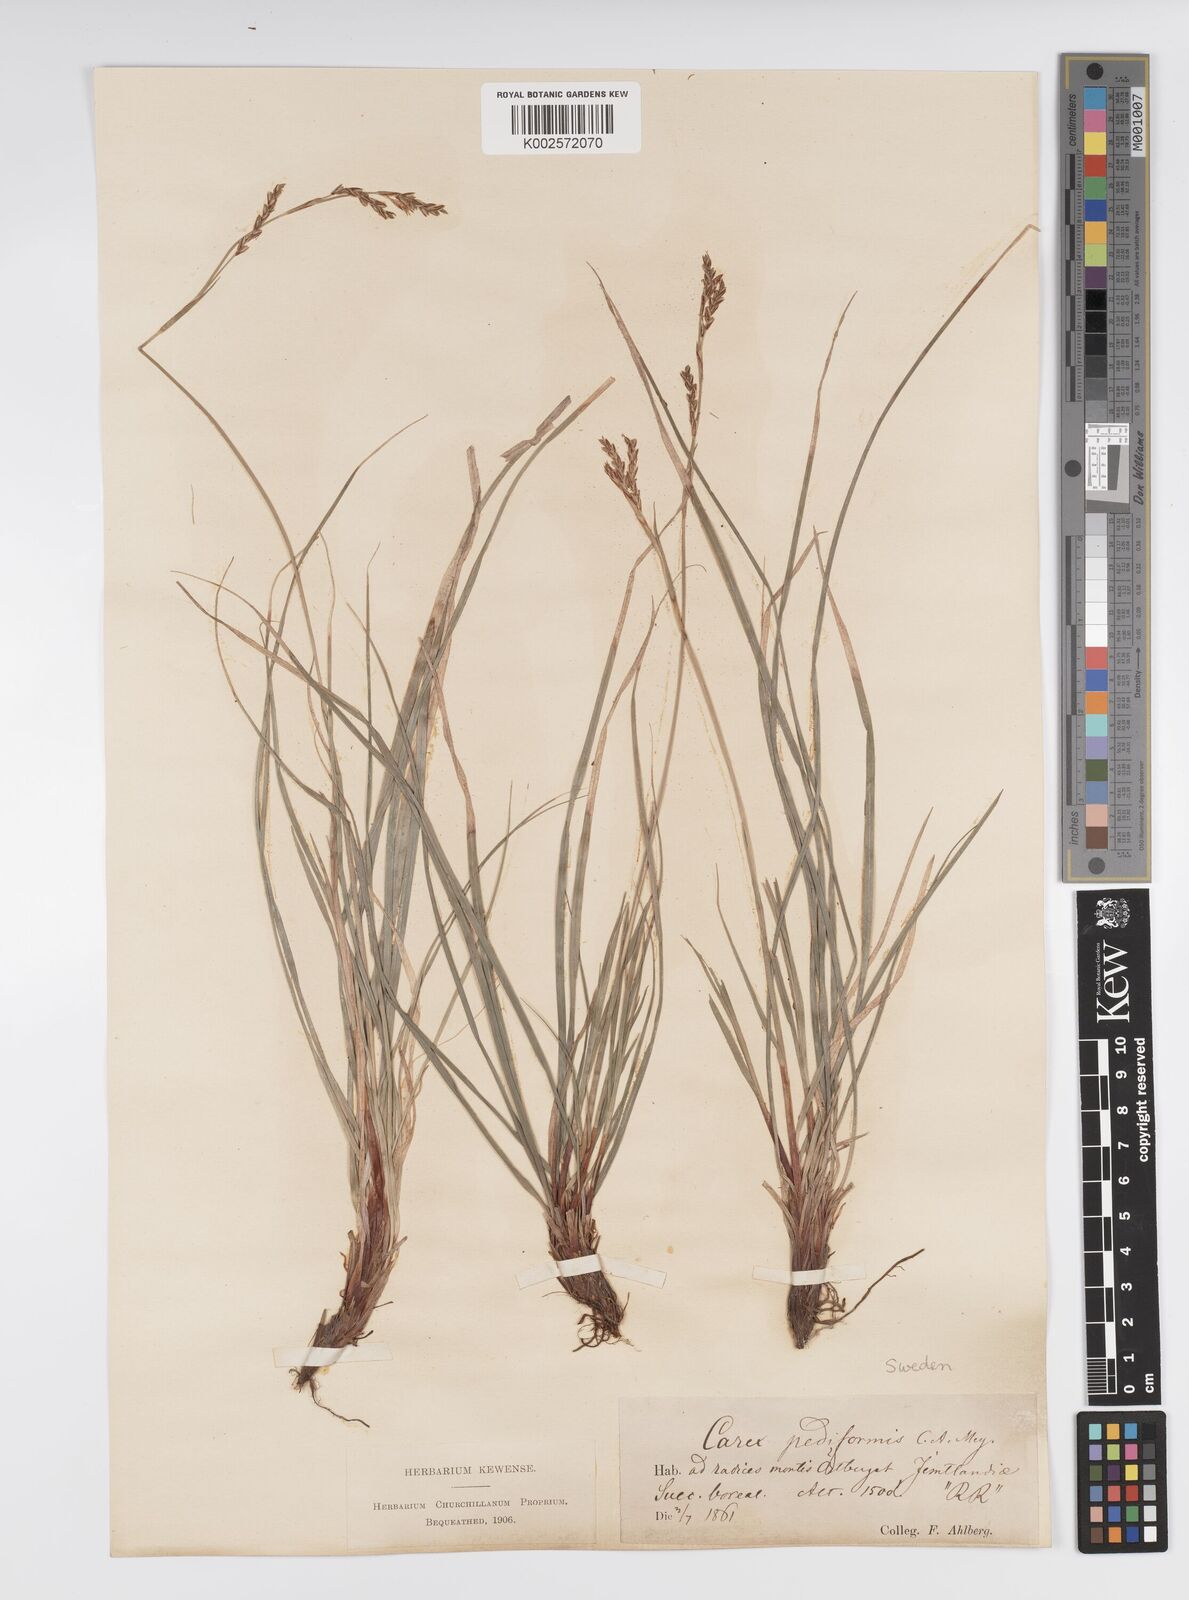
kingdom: Plantae
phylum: Tracheophyta
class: Liliopsida
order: Poales
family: Cyperaceae
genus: Carex
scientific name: Carex pediformis
